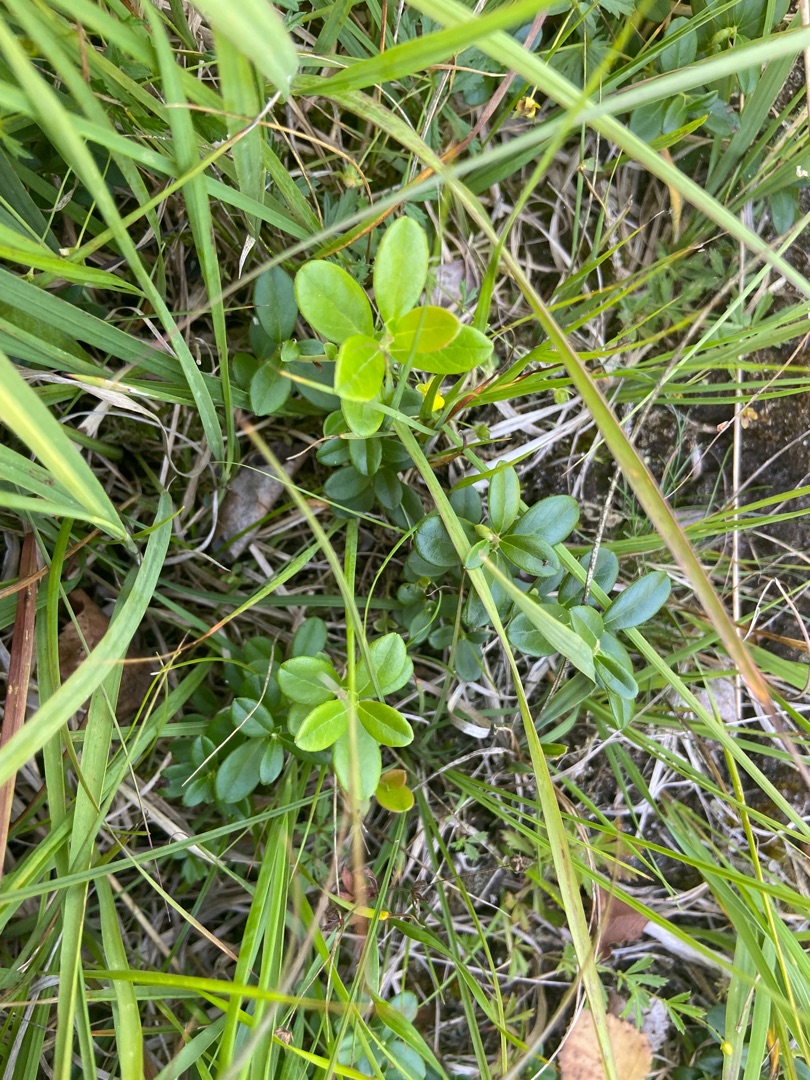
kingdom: Plantae
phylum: Tracheophyta
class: Magnoliopsida
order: Ericales
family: Ericaceae
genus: Vaccinium
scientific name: Vaccinium vitis-idaea
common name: Tyttebær
